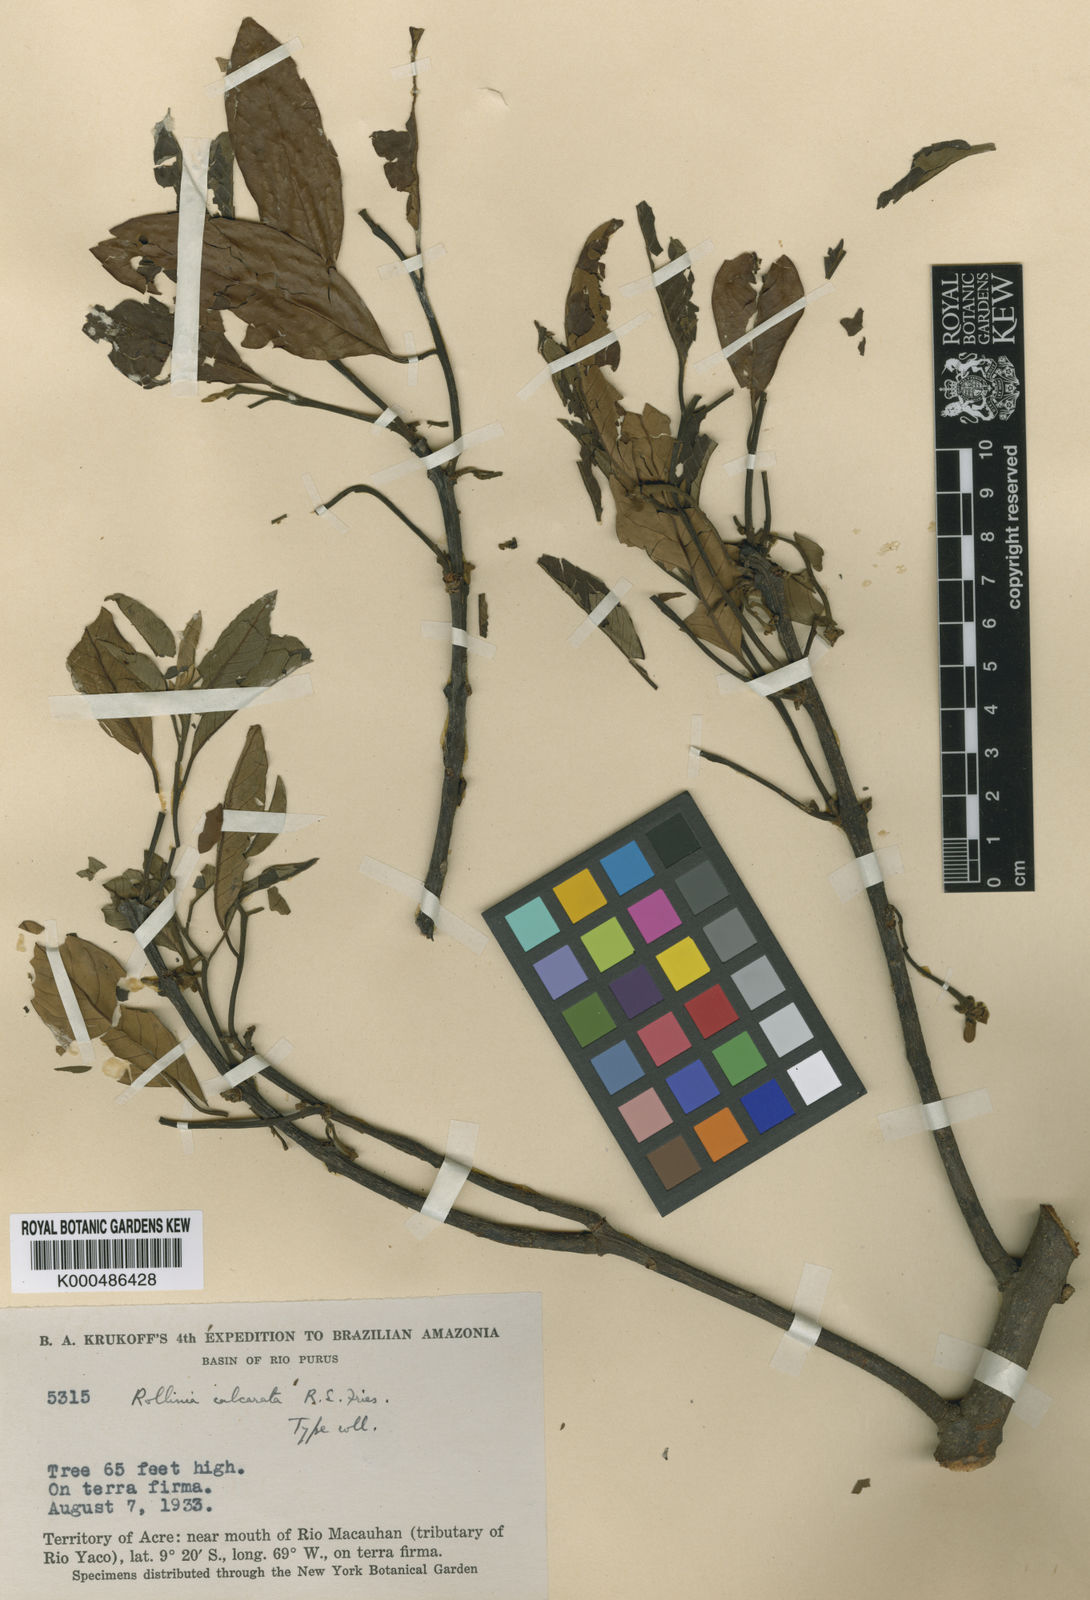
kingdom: Plantae
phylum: Tracheophyta
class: Magnoliopsida
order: Magnoliales
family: Annonaceae
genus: Annona
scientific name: Annona calcarata
